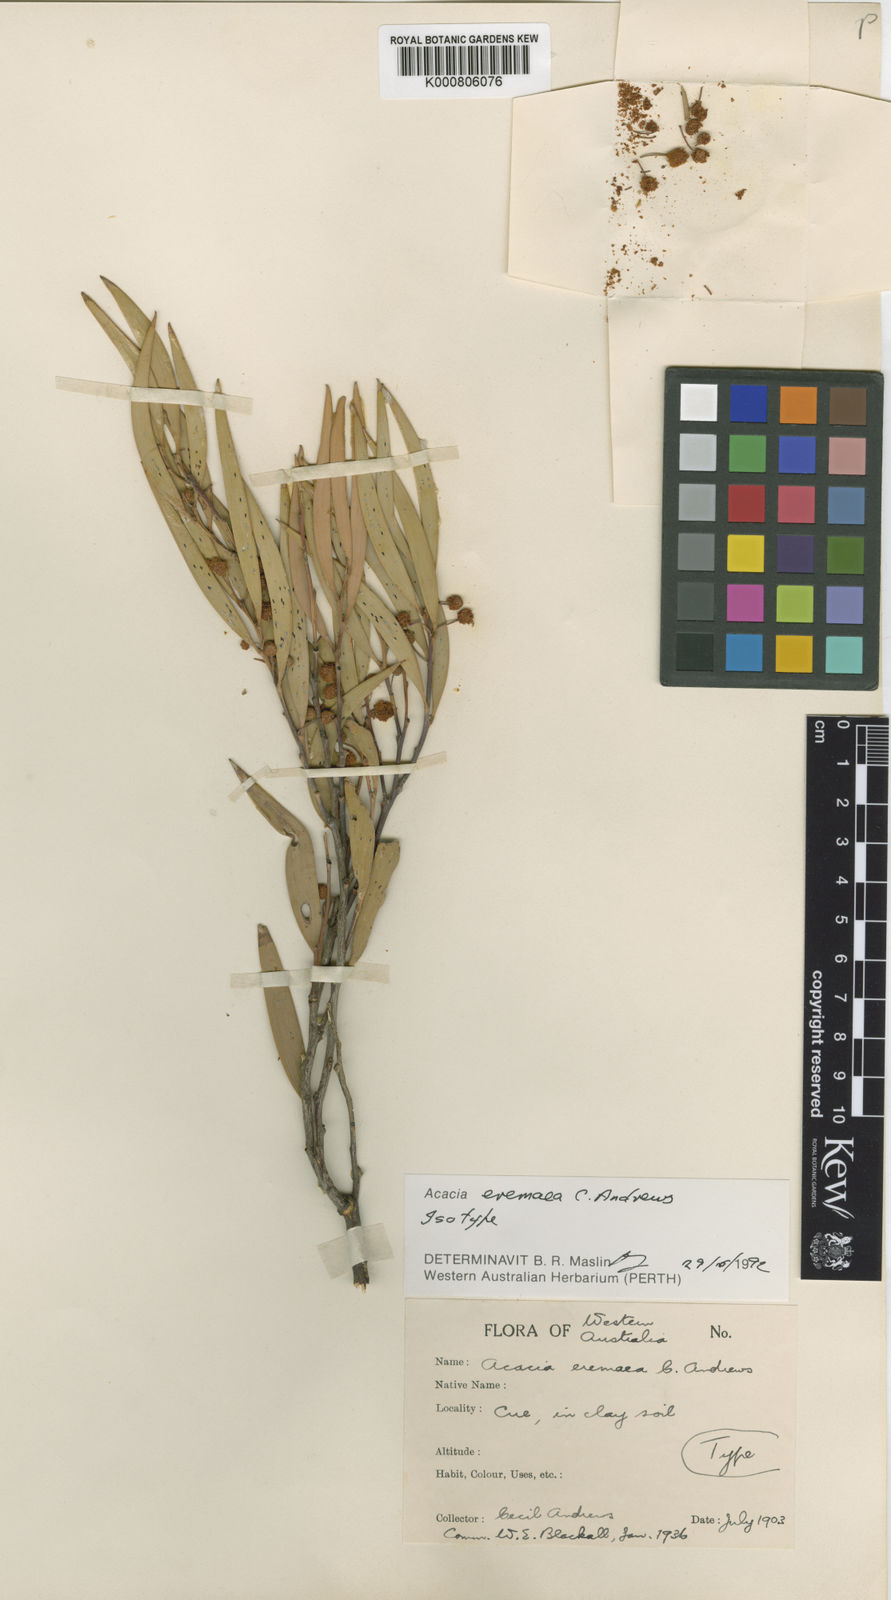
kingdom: Plantae
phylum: Tracheophyta
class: Magnoliopsida
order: Fabales
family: Fabaceae
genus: Acacia
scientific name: Acacia eremaea
